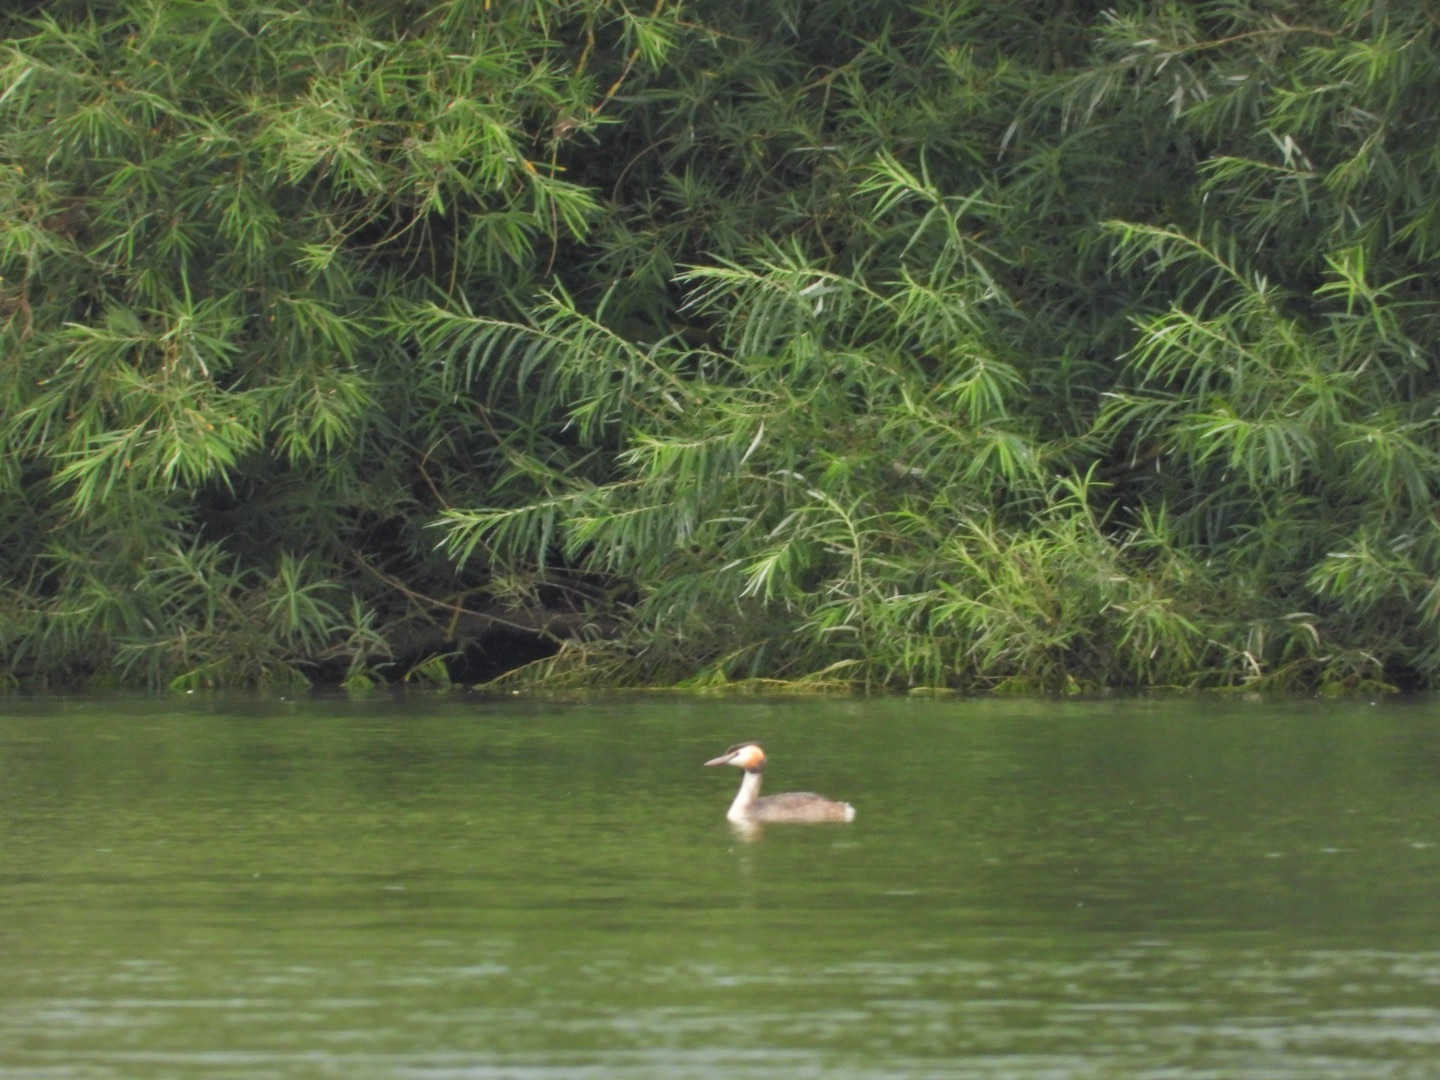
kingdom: Animalia
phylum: Chordata
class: Aves
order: Podicipediformes
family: Podicipedidae
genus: Podiceps
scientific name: Podiceps cristatus
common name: Toppet lappedykker
